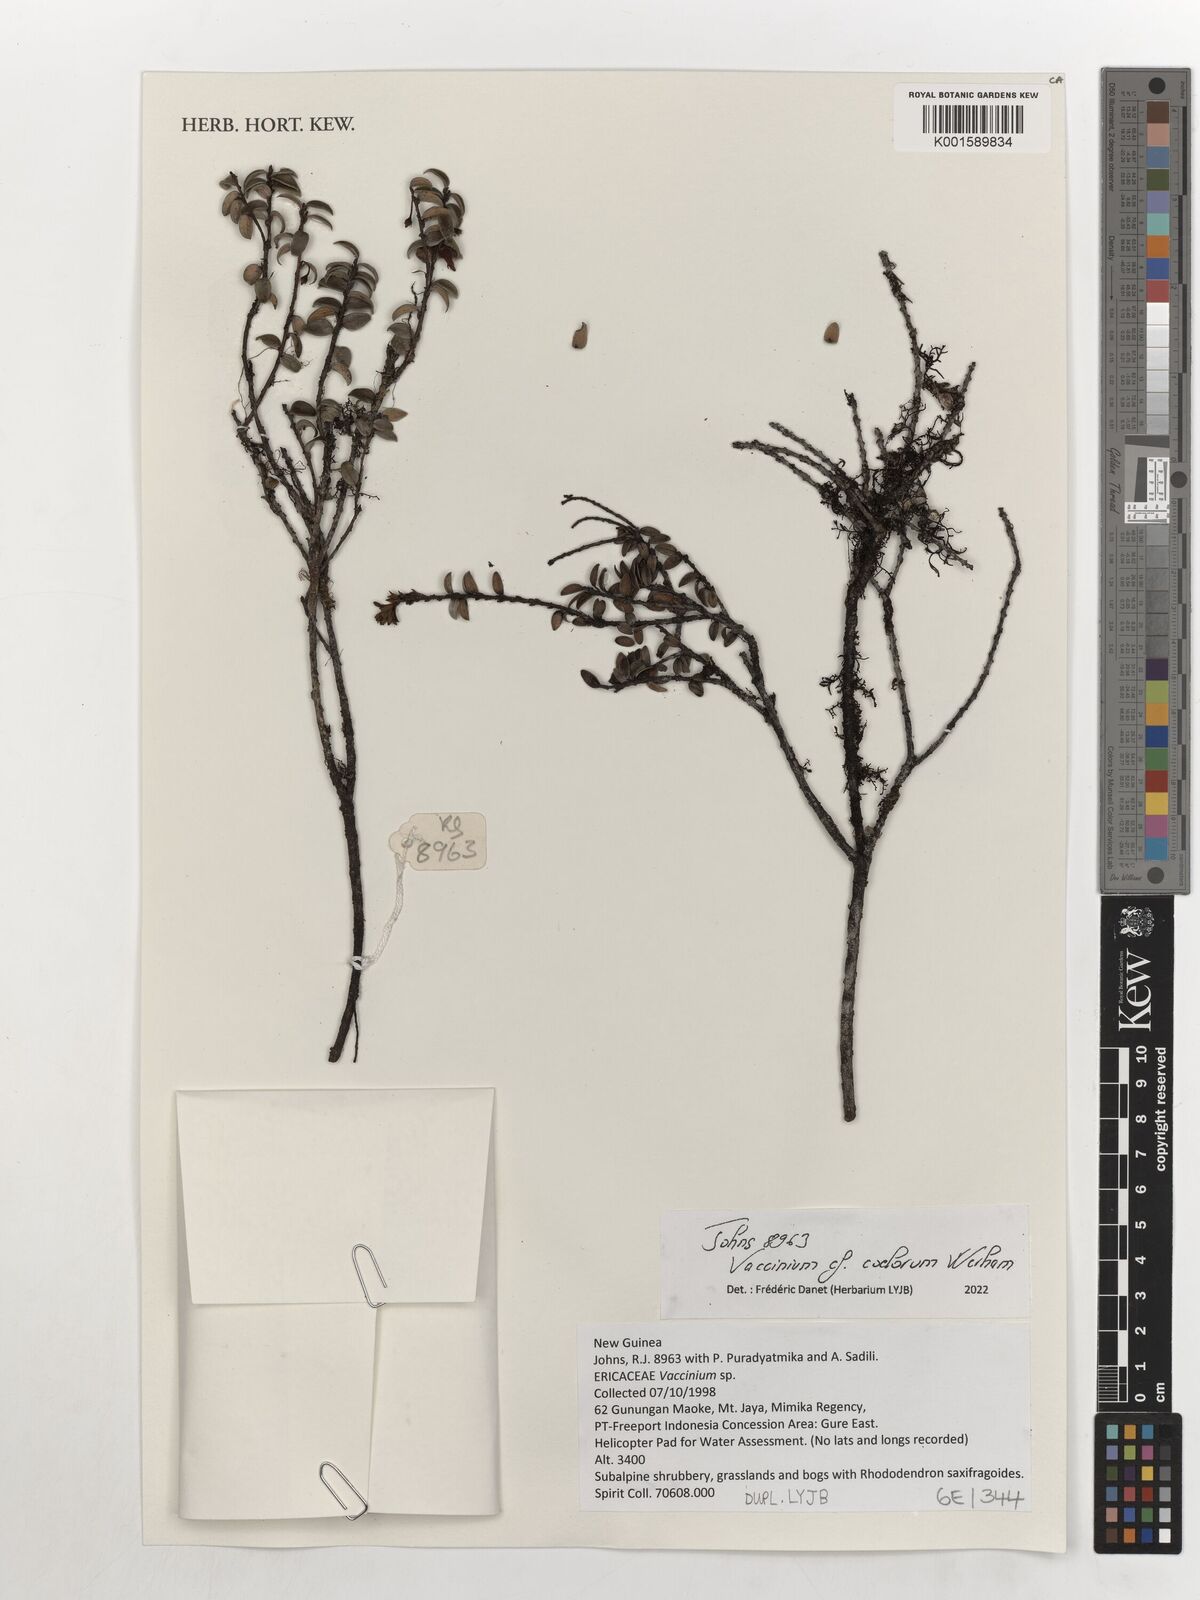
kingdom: Plantae
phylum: Tracheophyta
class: Magnoliopsida
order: Ericales
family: Ericaceae
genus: Vaccinium
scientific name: Vaccinium coelorum
